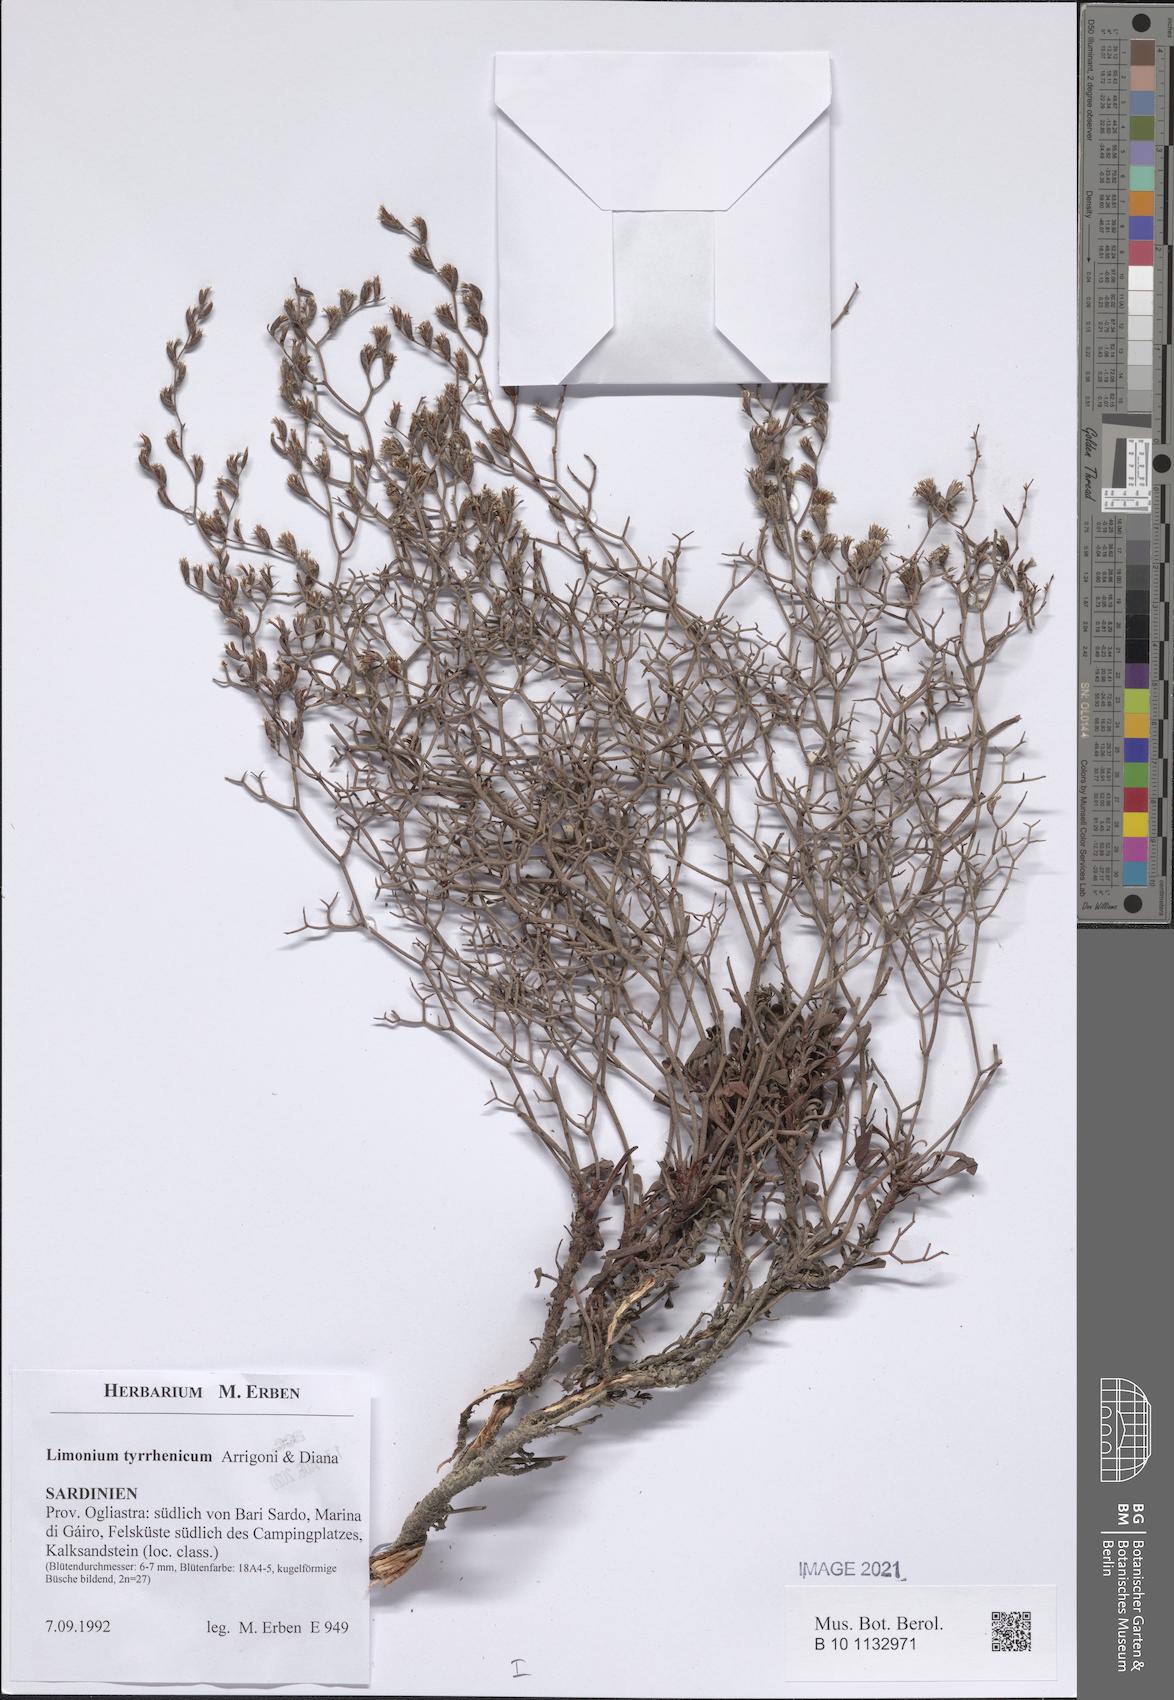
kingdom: Plantae
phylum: Tracheophyta
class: Magnoliopsida
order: Caryophyllales
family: Plumbaginaceae
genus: Limonium
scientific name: Limonium tyrrhenicum
